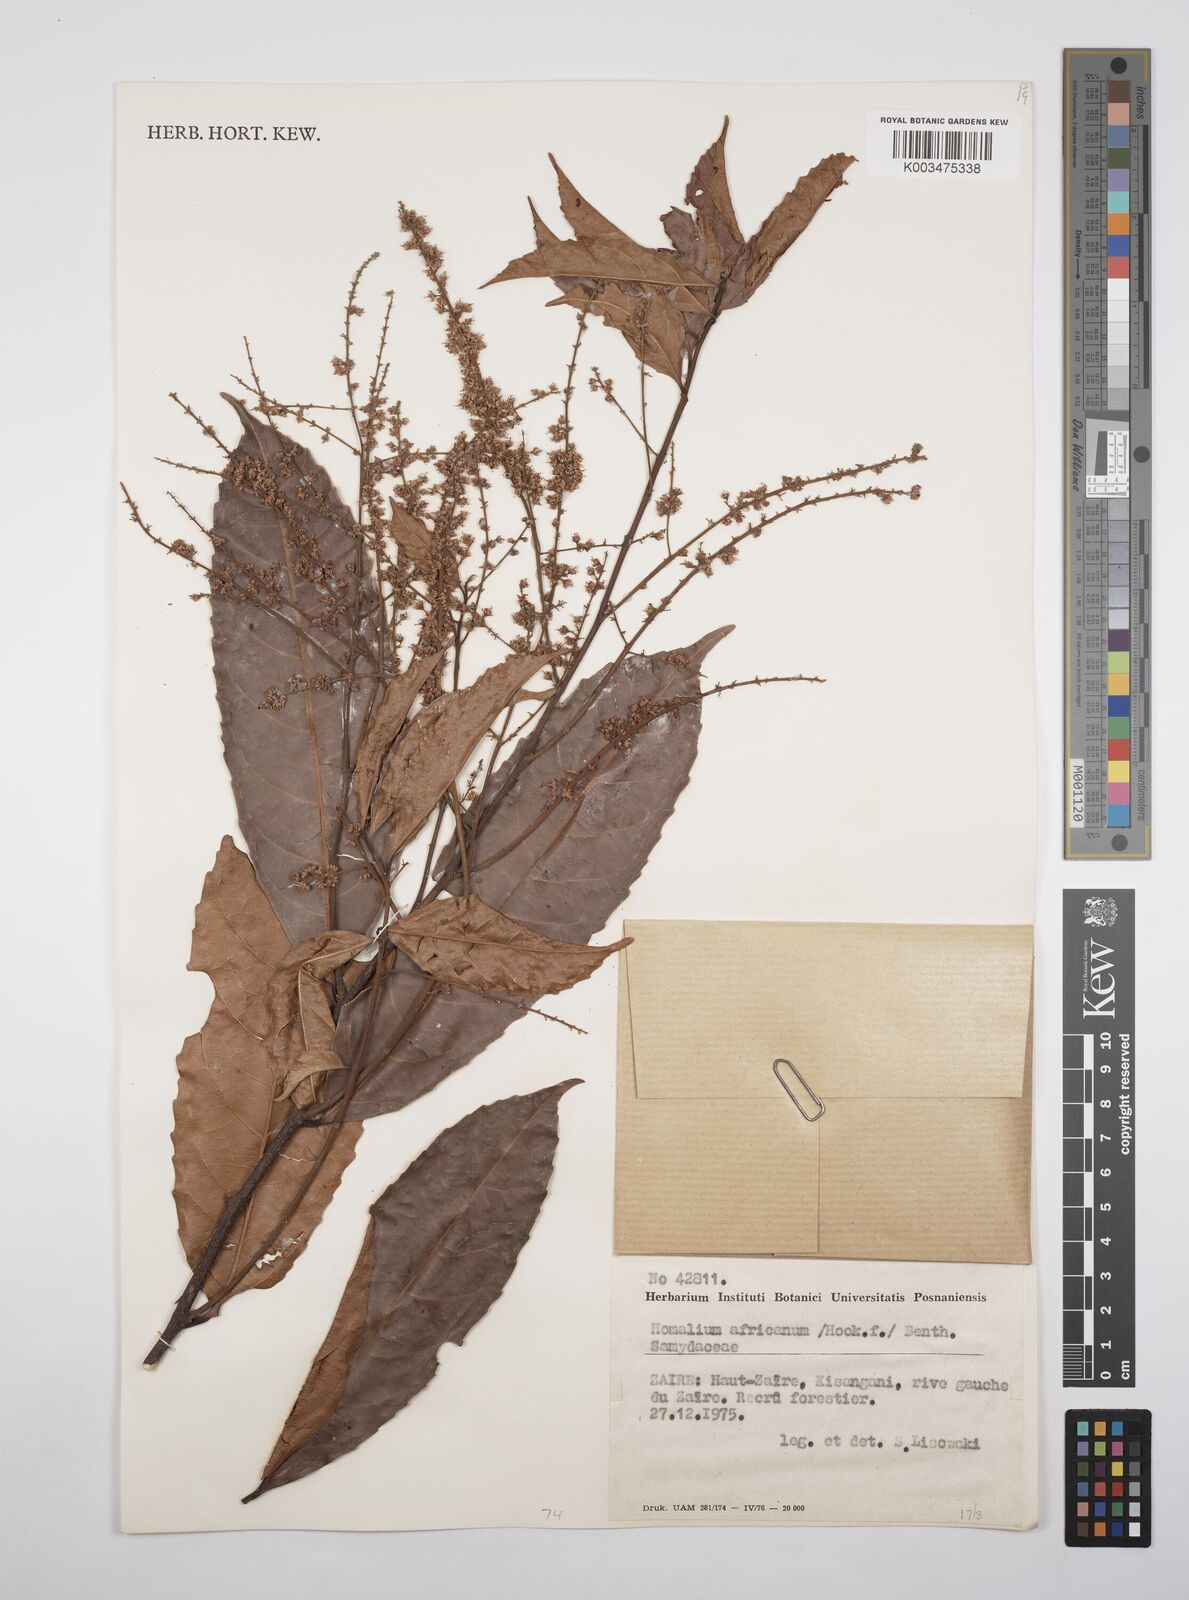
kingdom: Plantae
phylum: Tracheophyta
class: Magnoliopsida
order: Malpighiales
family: Salicaceae
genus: Homalium
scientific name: Homalium africanum
